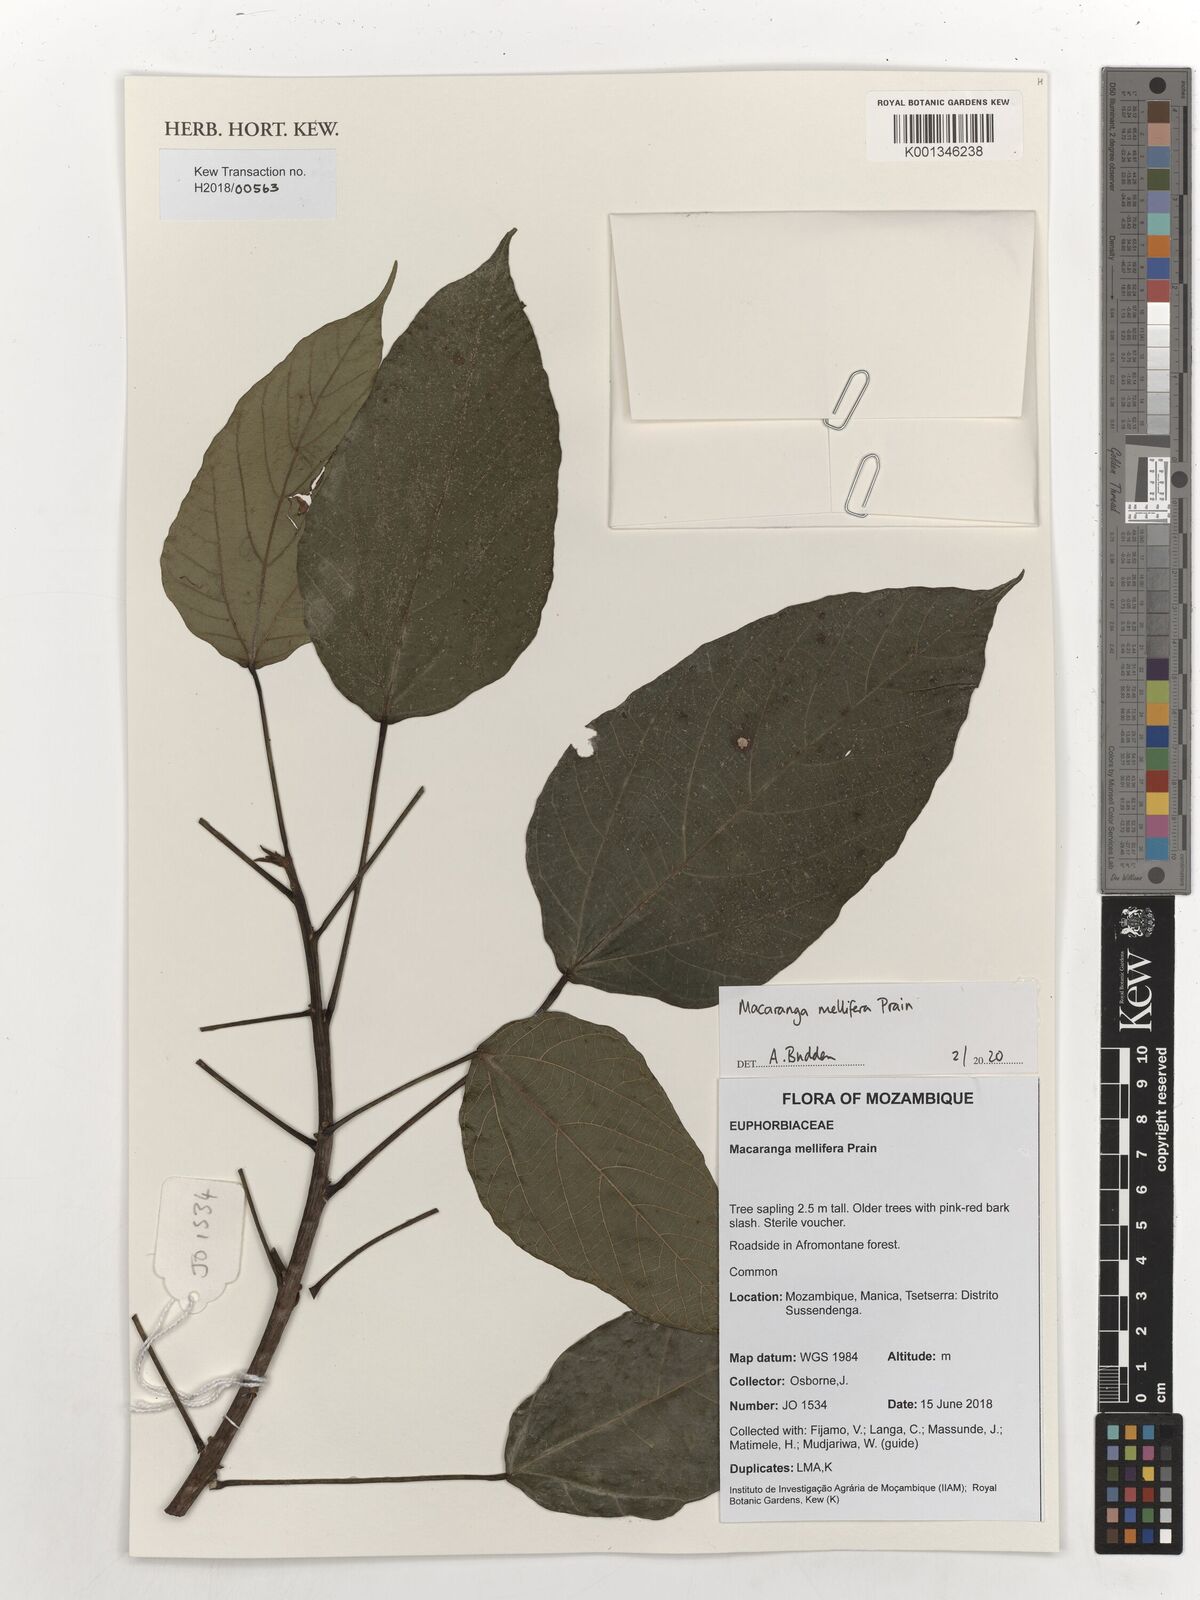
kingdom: Plantae
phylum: Tracheophyta
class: Magnoliopsida
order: Malpighiales
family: Euphorbiaceae
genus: Macaranga
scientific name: Macaranga mellifera
